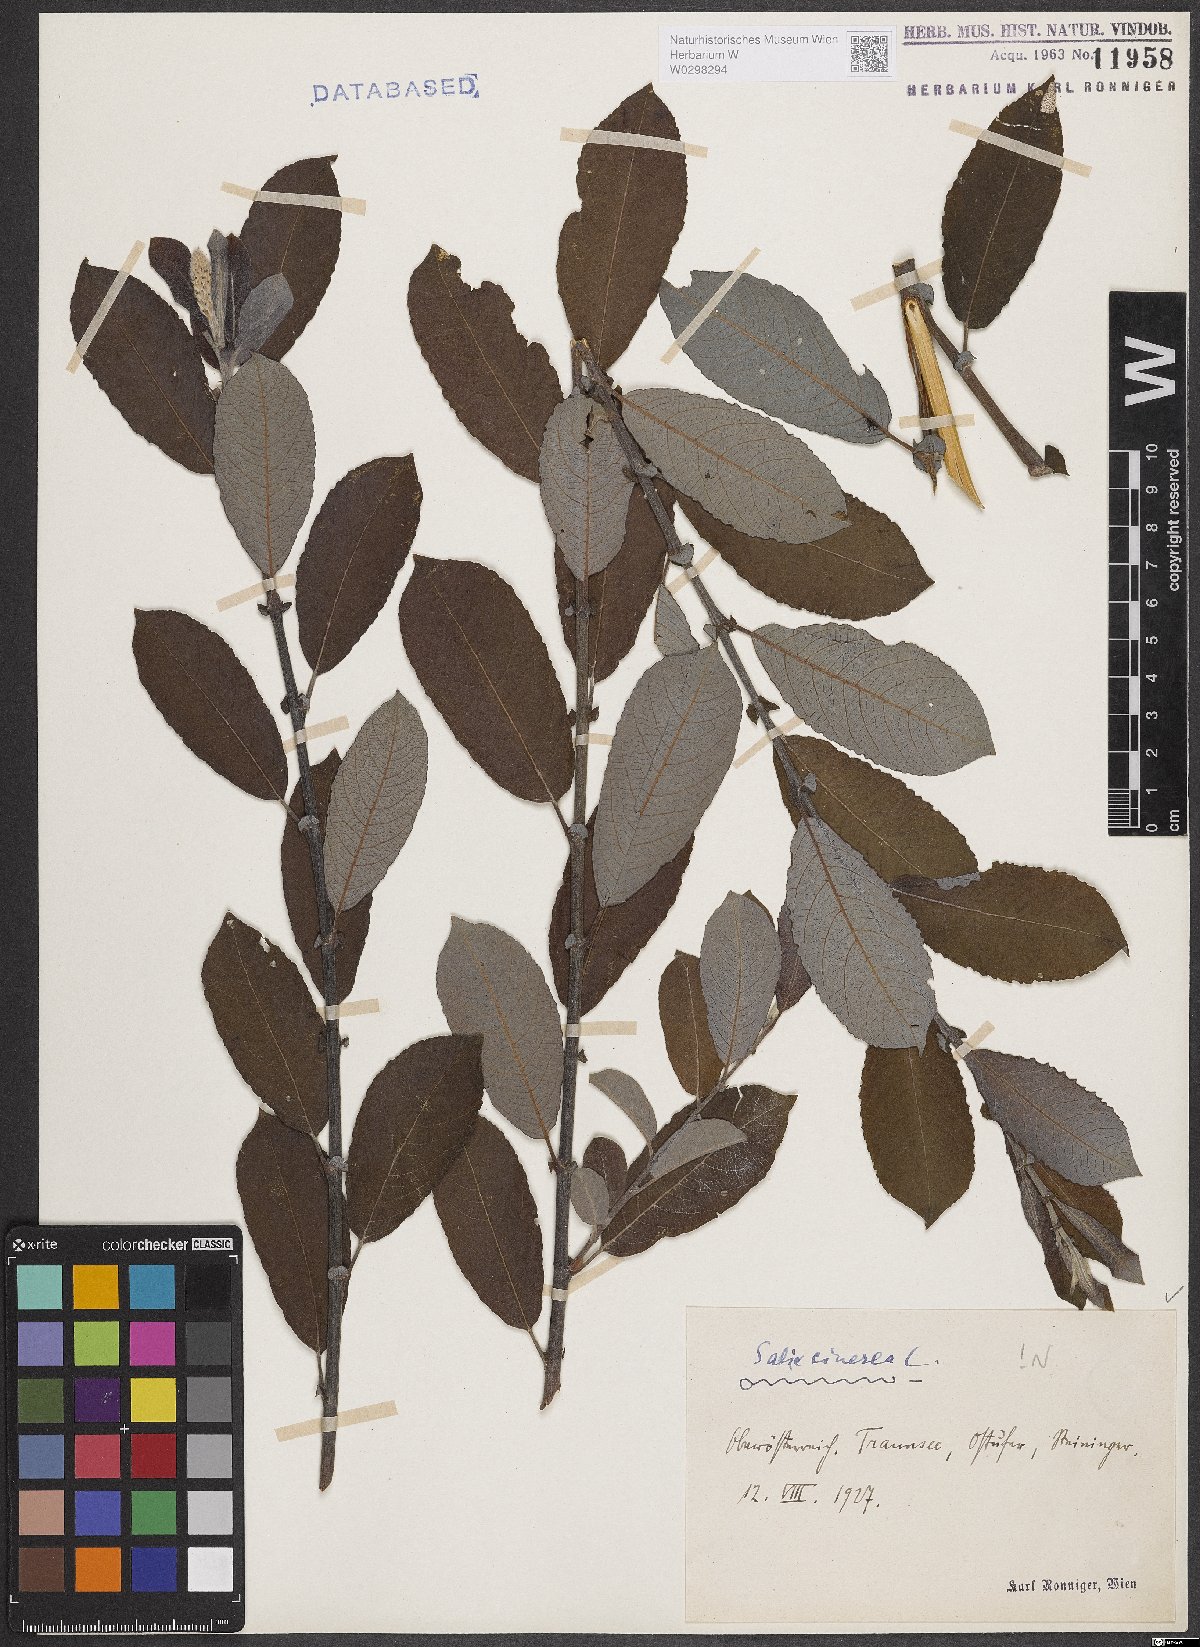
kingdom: Plantae
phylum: Tracheophyta
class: Magnoliopsida
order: Malpighiales
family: Salicaceae
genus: Salix
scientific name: Salix cinerea
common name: Common sallow
